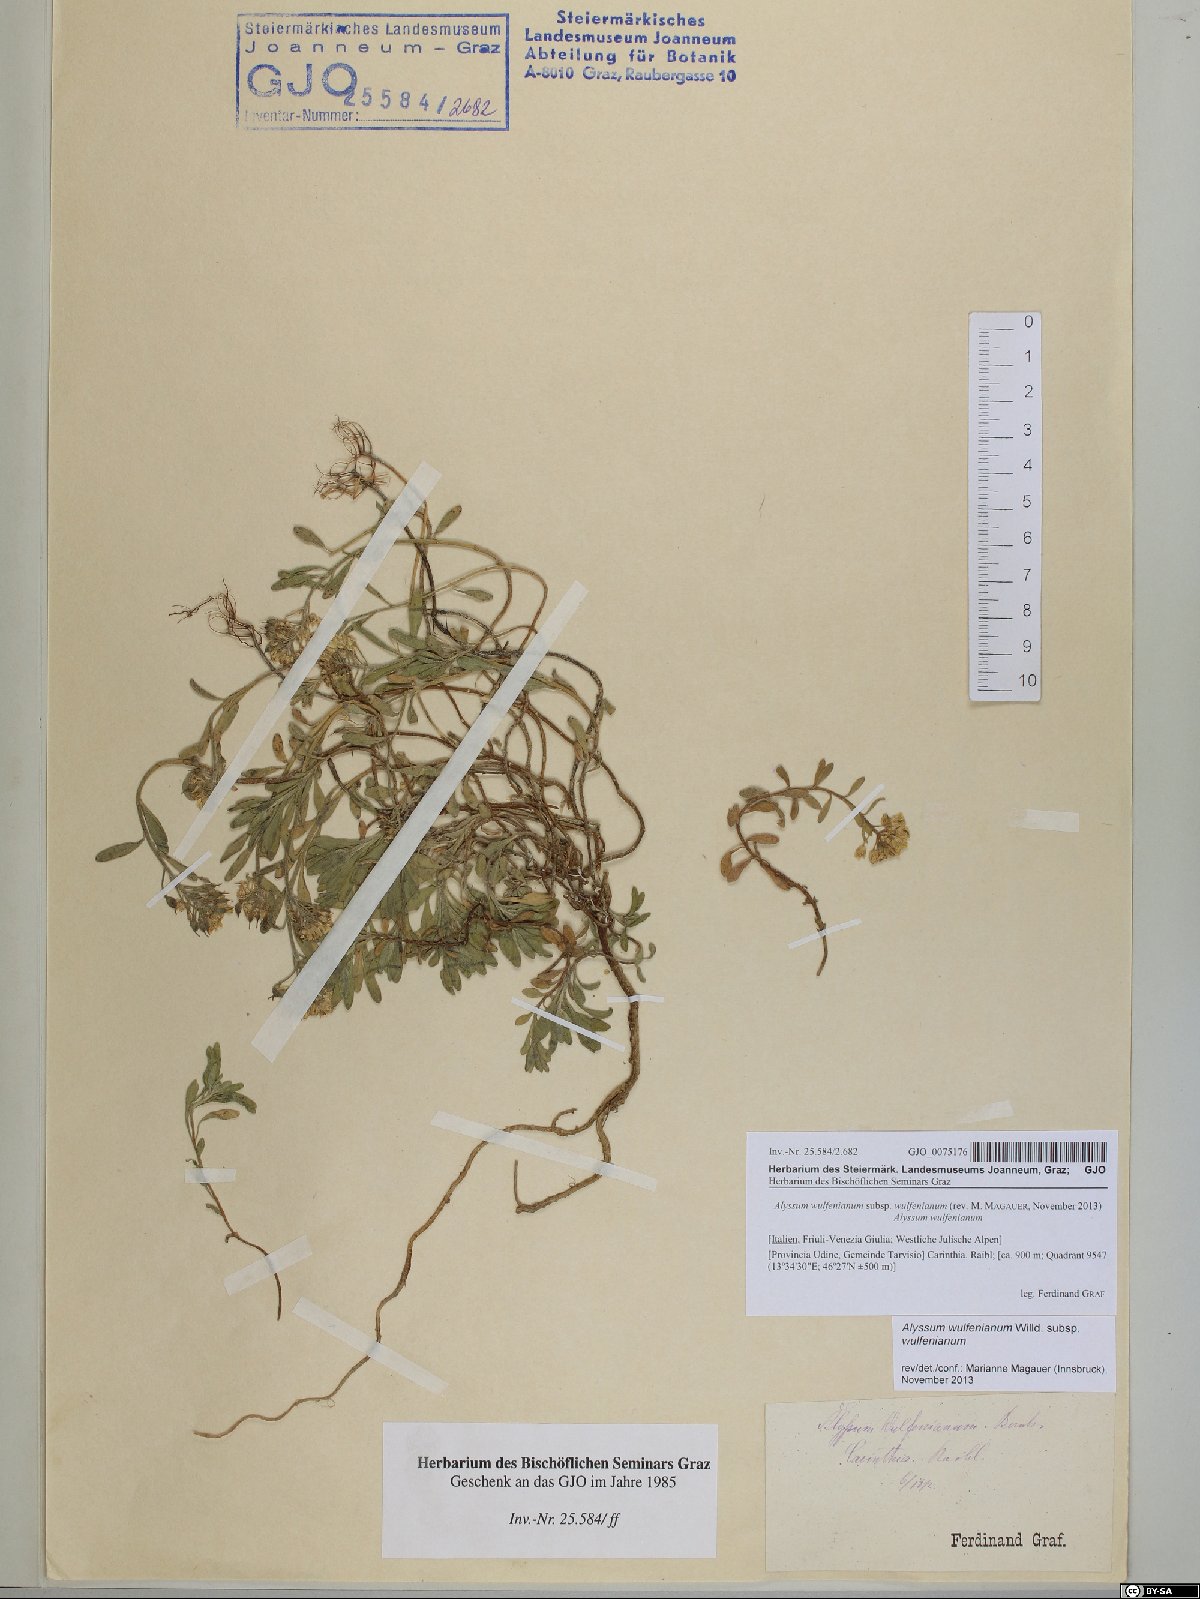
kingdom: Plantae
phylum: Tracheophyta
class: Magnoliopsida
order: Brassicales
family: Brassicaceae
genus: Alyssum
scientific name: Alyssum wulfenianum
